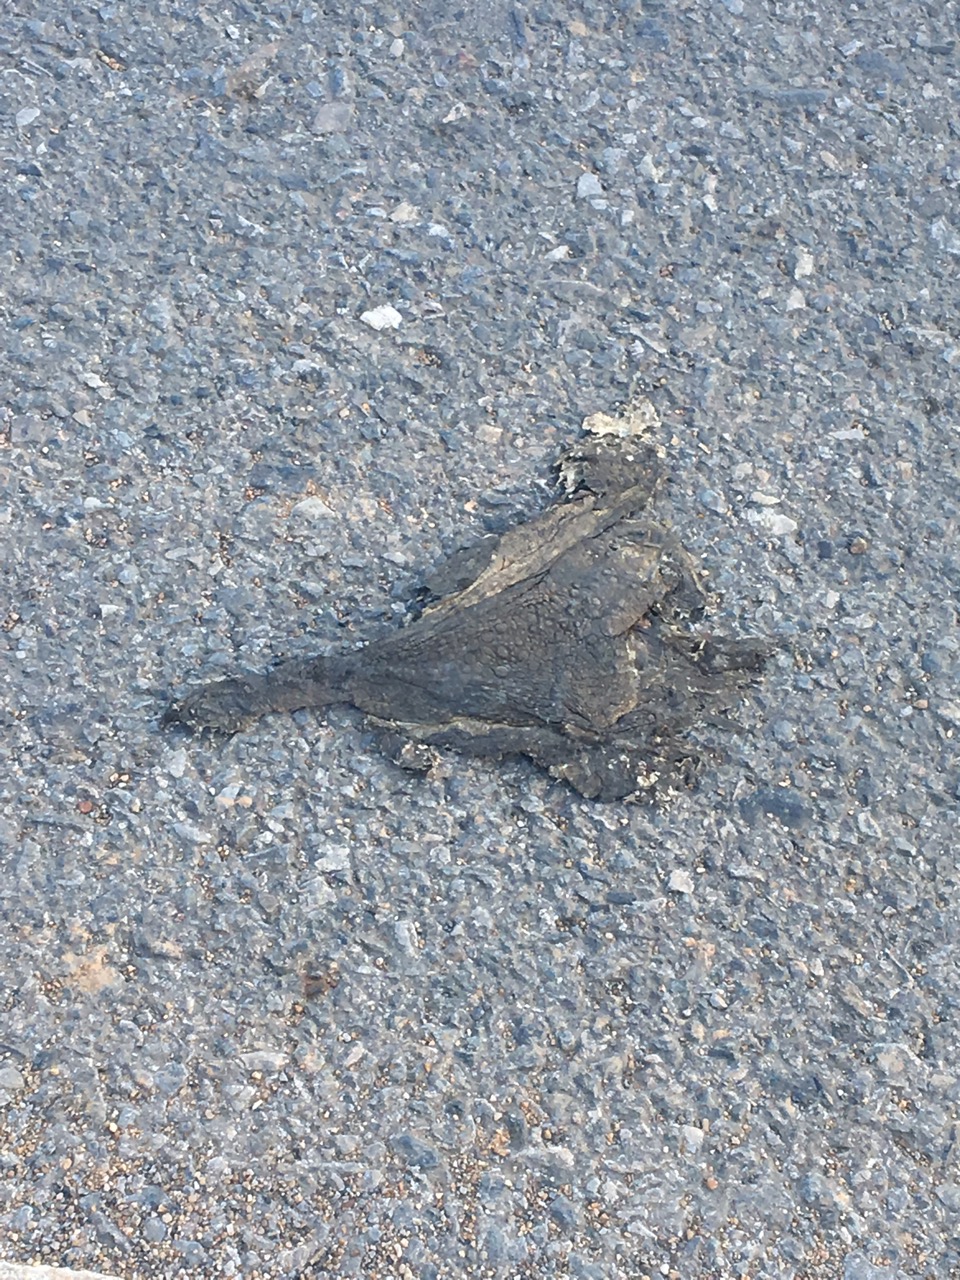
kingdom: Animalia
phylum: Chordata
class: Amphibia
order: Anura
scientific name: Anura
